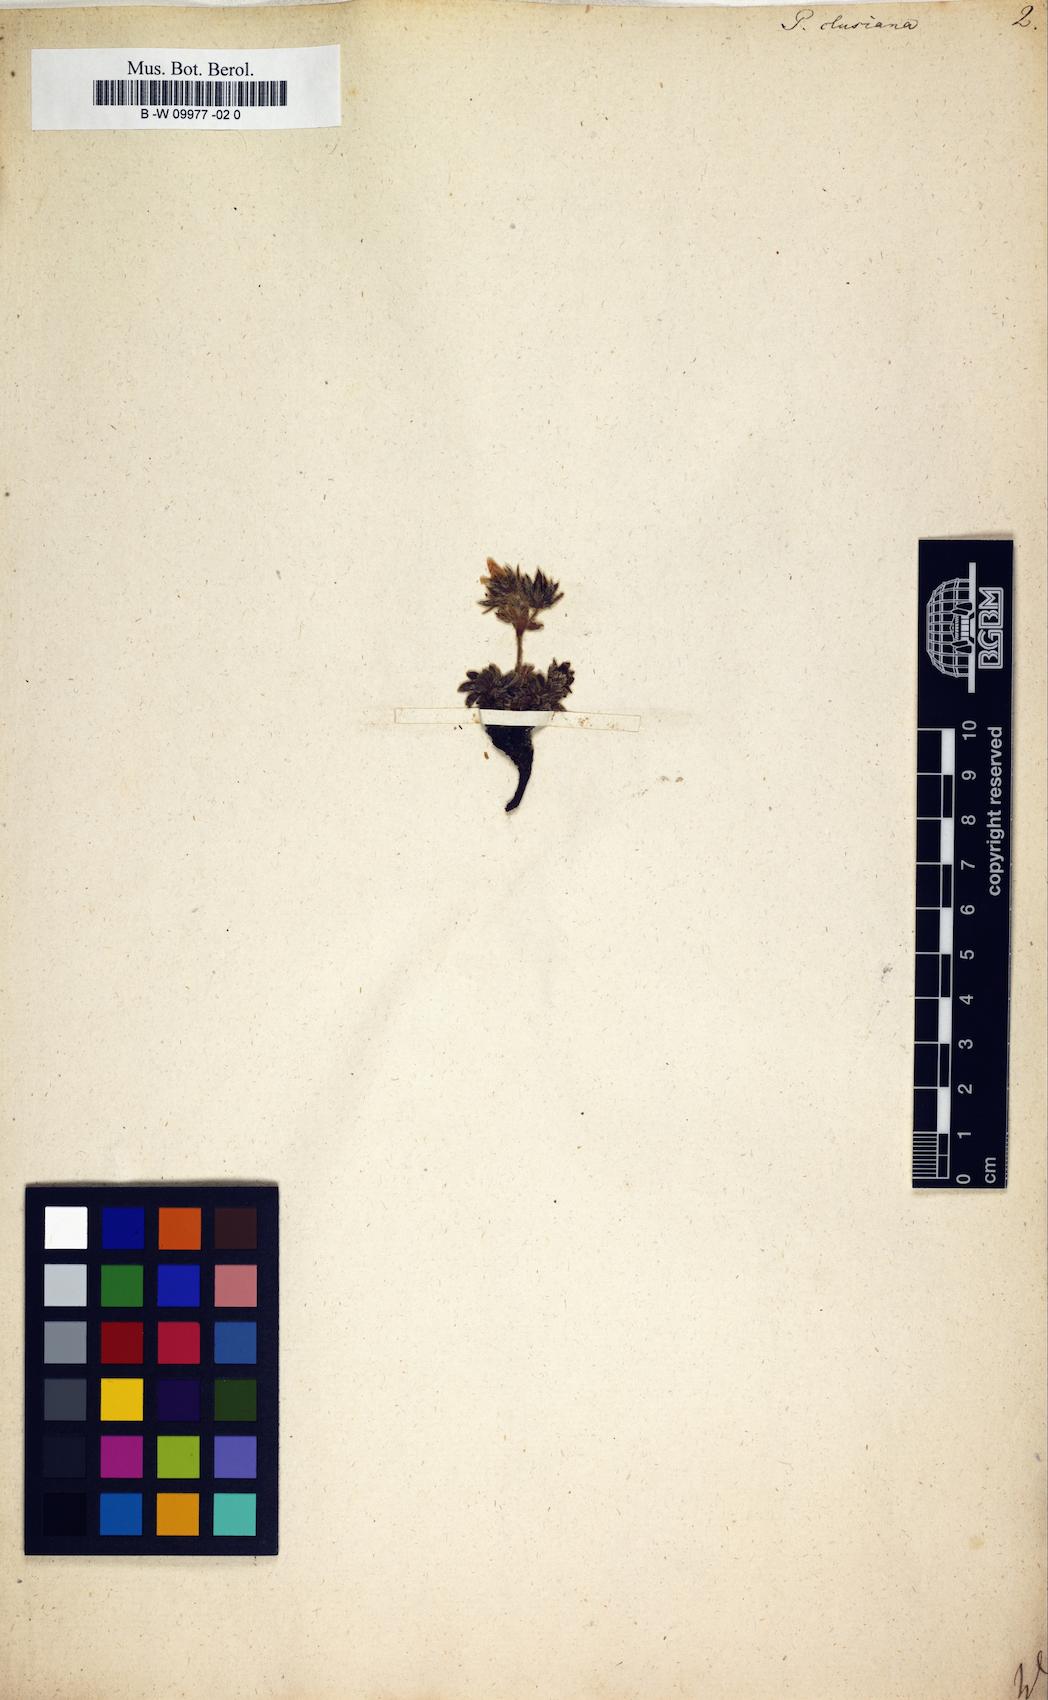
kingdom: Plantae
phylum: Tracheophyta
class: Magnoliopsida
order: Rosales
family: Rosaceae
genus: Potentilla
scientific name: Potentilla clusiana
